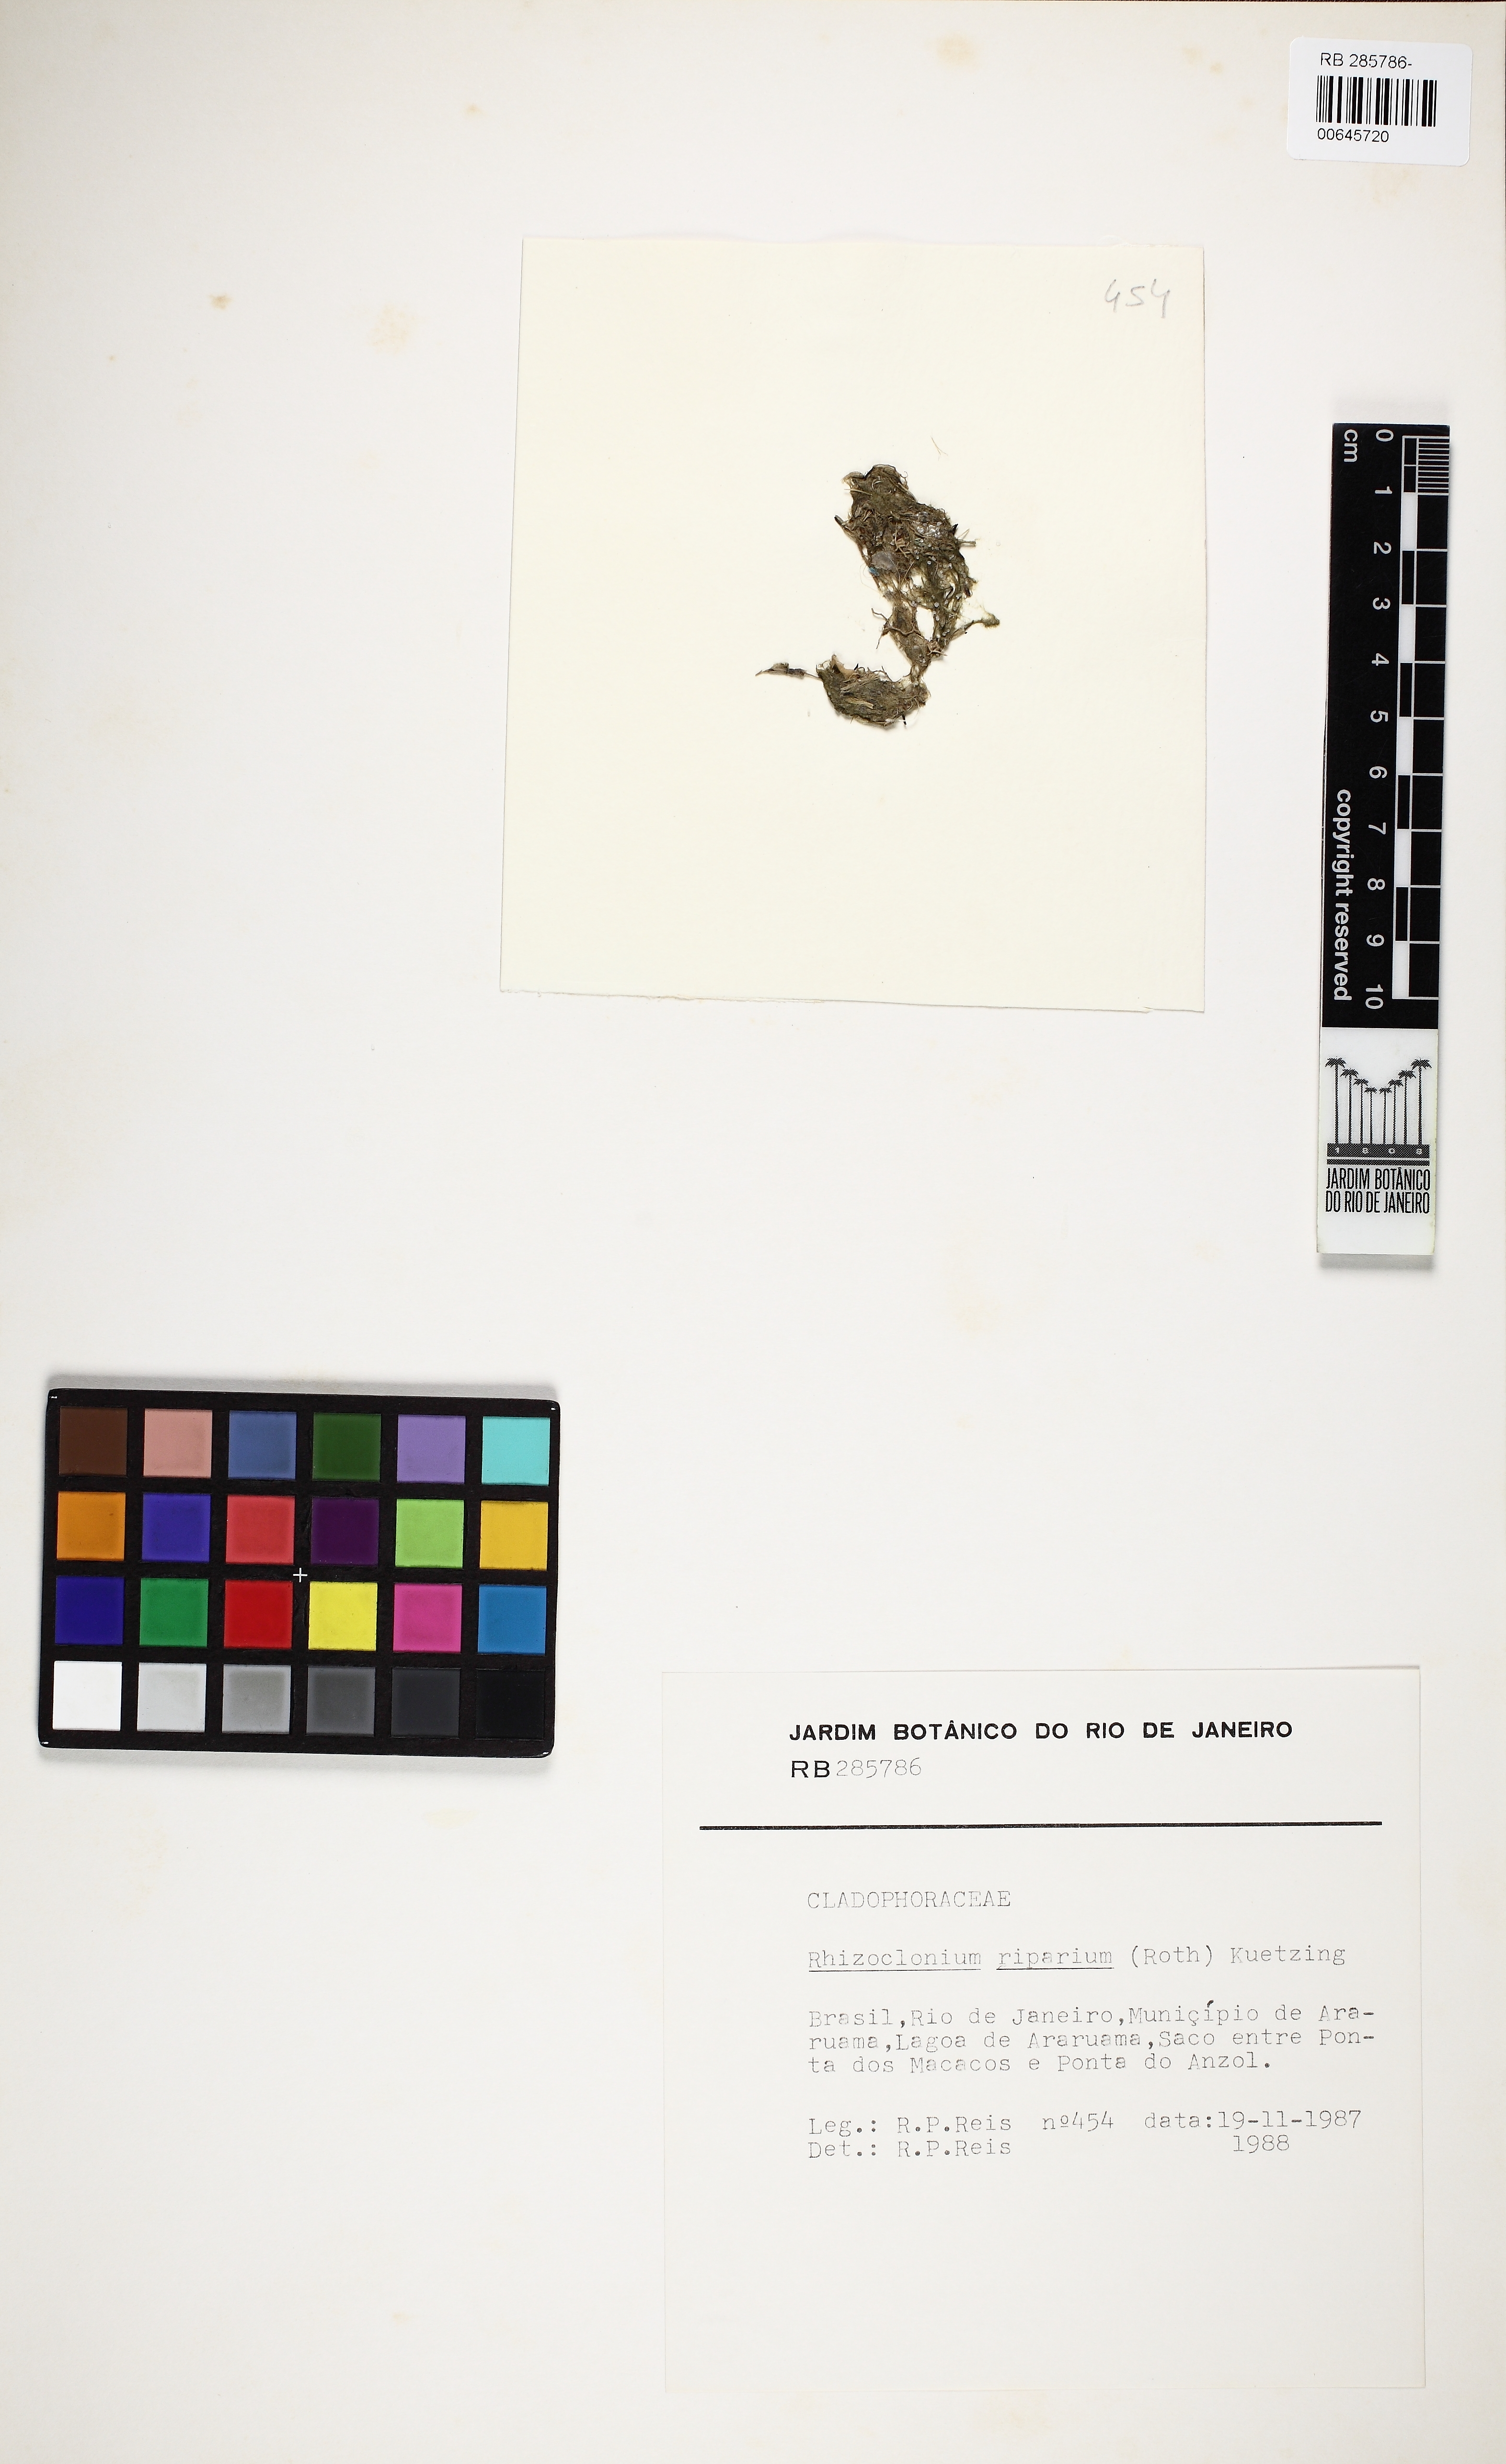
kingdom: Plantae
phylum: Chlorophyta
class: Ulvophyceae
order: Cladophorales
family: Cladophoraceae
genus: Rhizoclonium
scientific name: Rhizoclonium riparium
